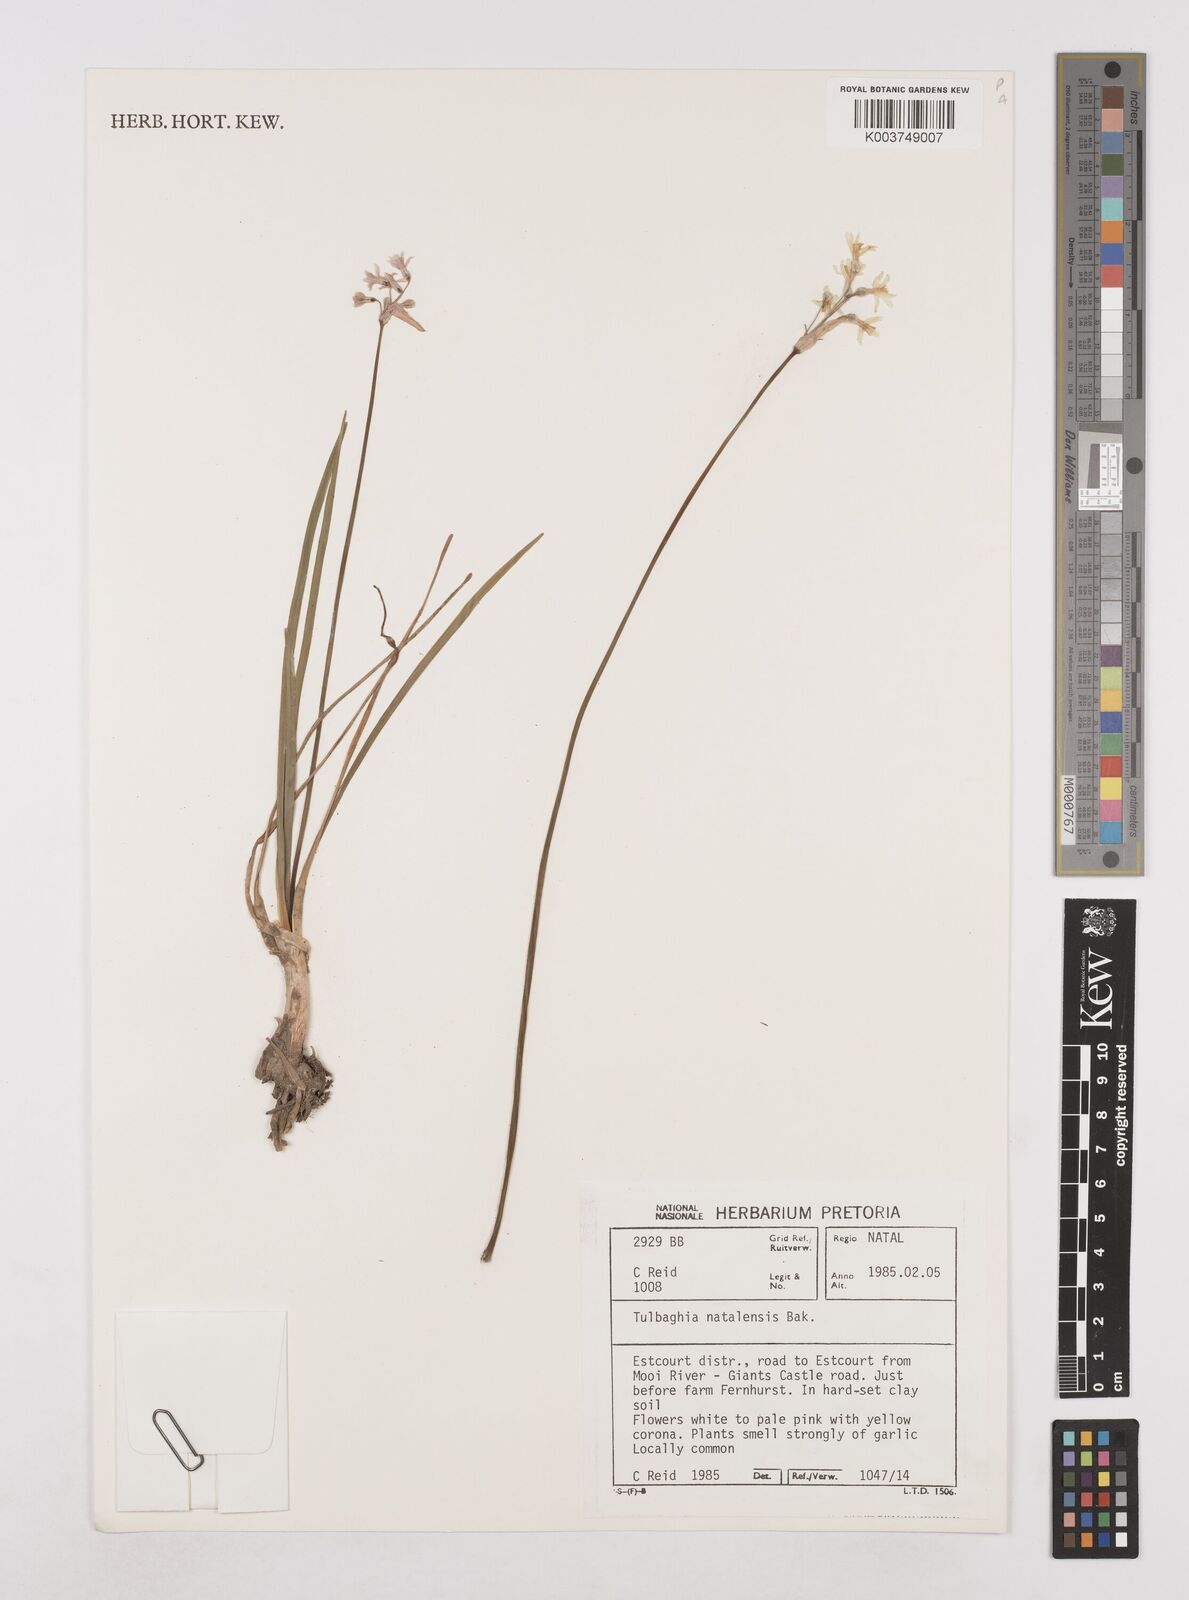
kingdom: Plantae
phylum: Tracheophyta
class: Liliopsida
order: Asparagales
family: Amaryllidaceae
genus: Tulbaghia
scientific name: Tulbaghia natalensis
